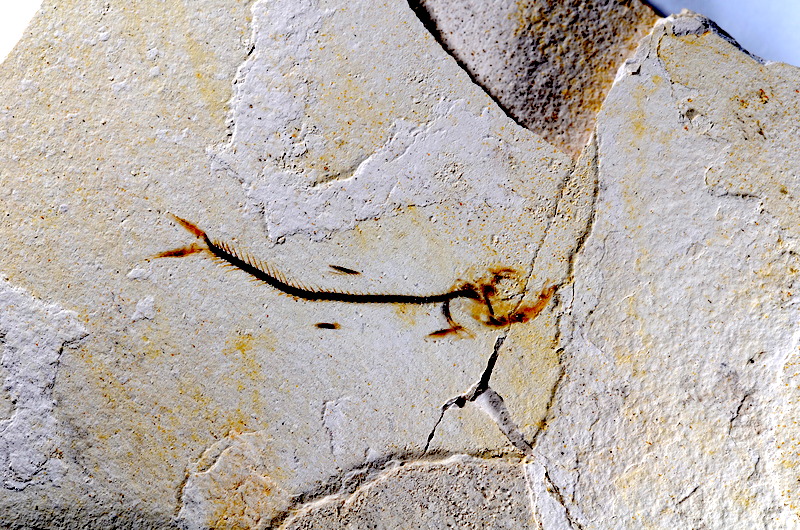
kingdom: Animalia
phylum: Chordata
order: Salmoniformes
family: Orthogonikleithridae
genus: Orthogonikleithrus
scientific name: Orthogonikleithrus hoelli
